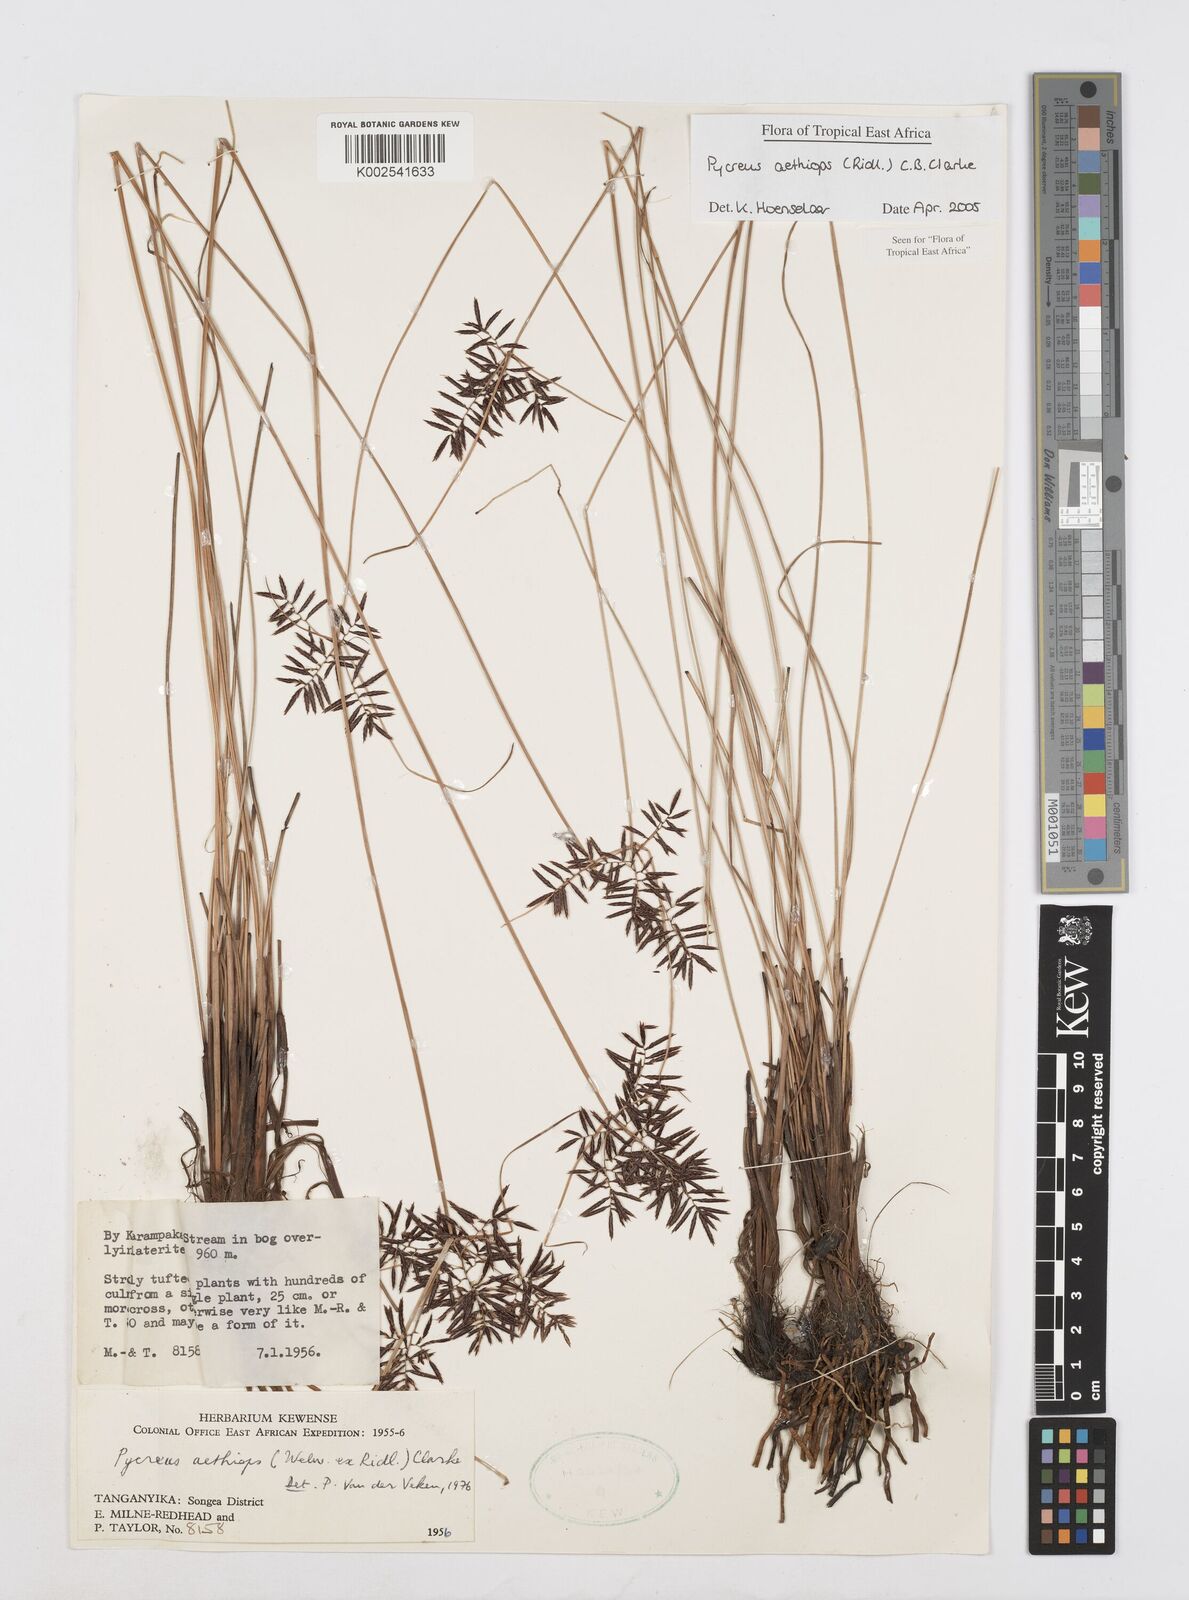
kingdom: Plantae
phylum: Tracheophyta
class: Liliopsida
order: Poales
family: Cyperaceae
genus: Cyperus
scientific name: Cyperus aethiops
